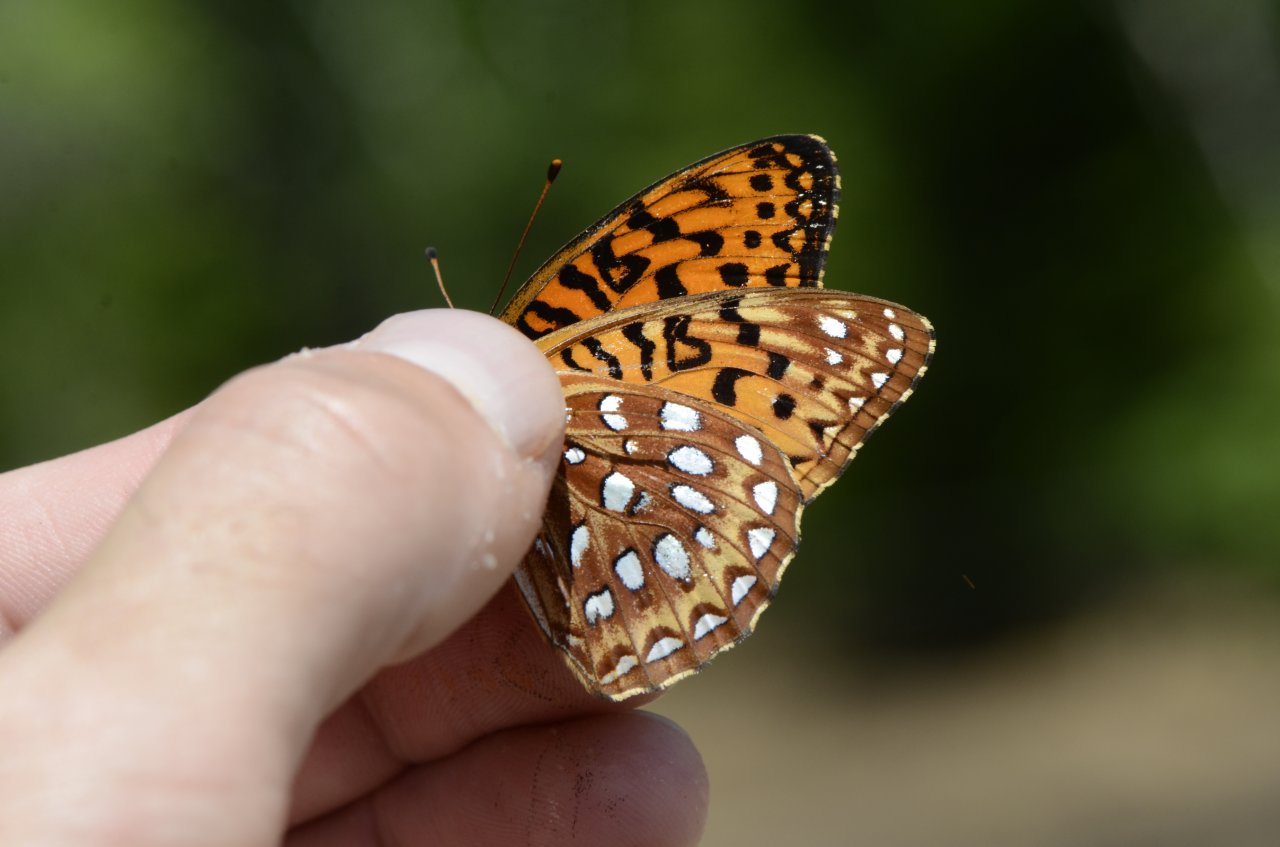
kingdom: Animalia
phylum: Arthropoda
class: Insecta
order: Lepidoptera
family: Nymphalidae
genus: Speyeria
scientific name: Speyeria aphrodite
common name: Aphrodite Fritillary
